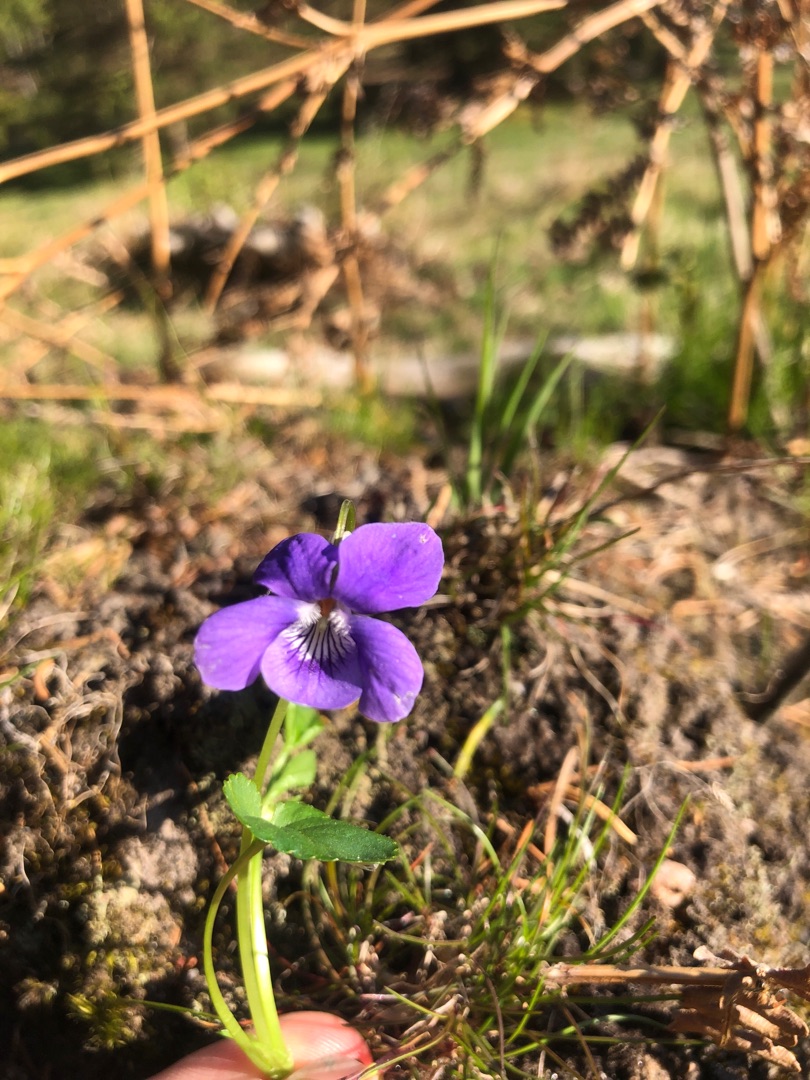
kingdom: Plantae
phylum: Tracheophyta
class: Magnoliopsida
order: Malpighiales
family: Violaceae
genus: Viola
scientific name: Viola riviniana
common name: Krat-viol
